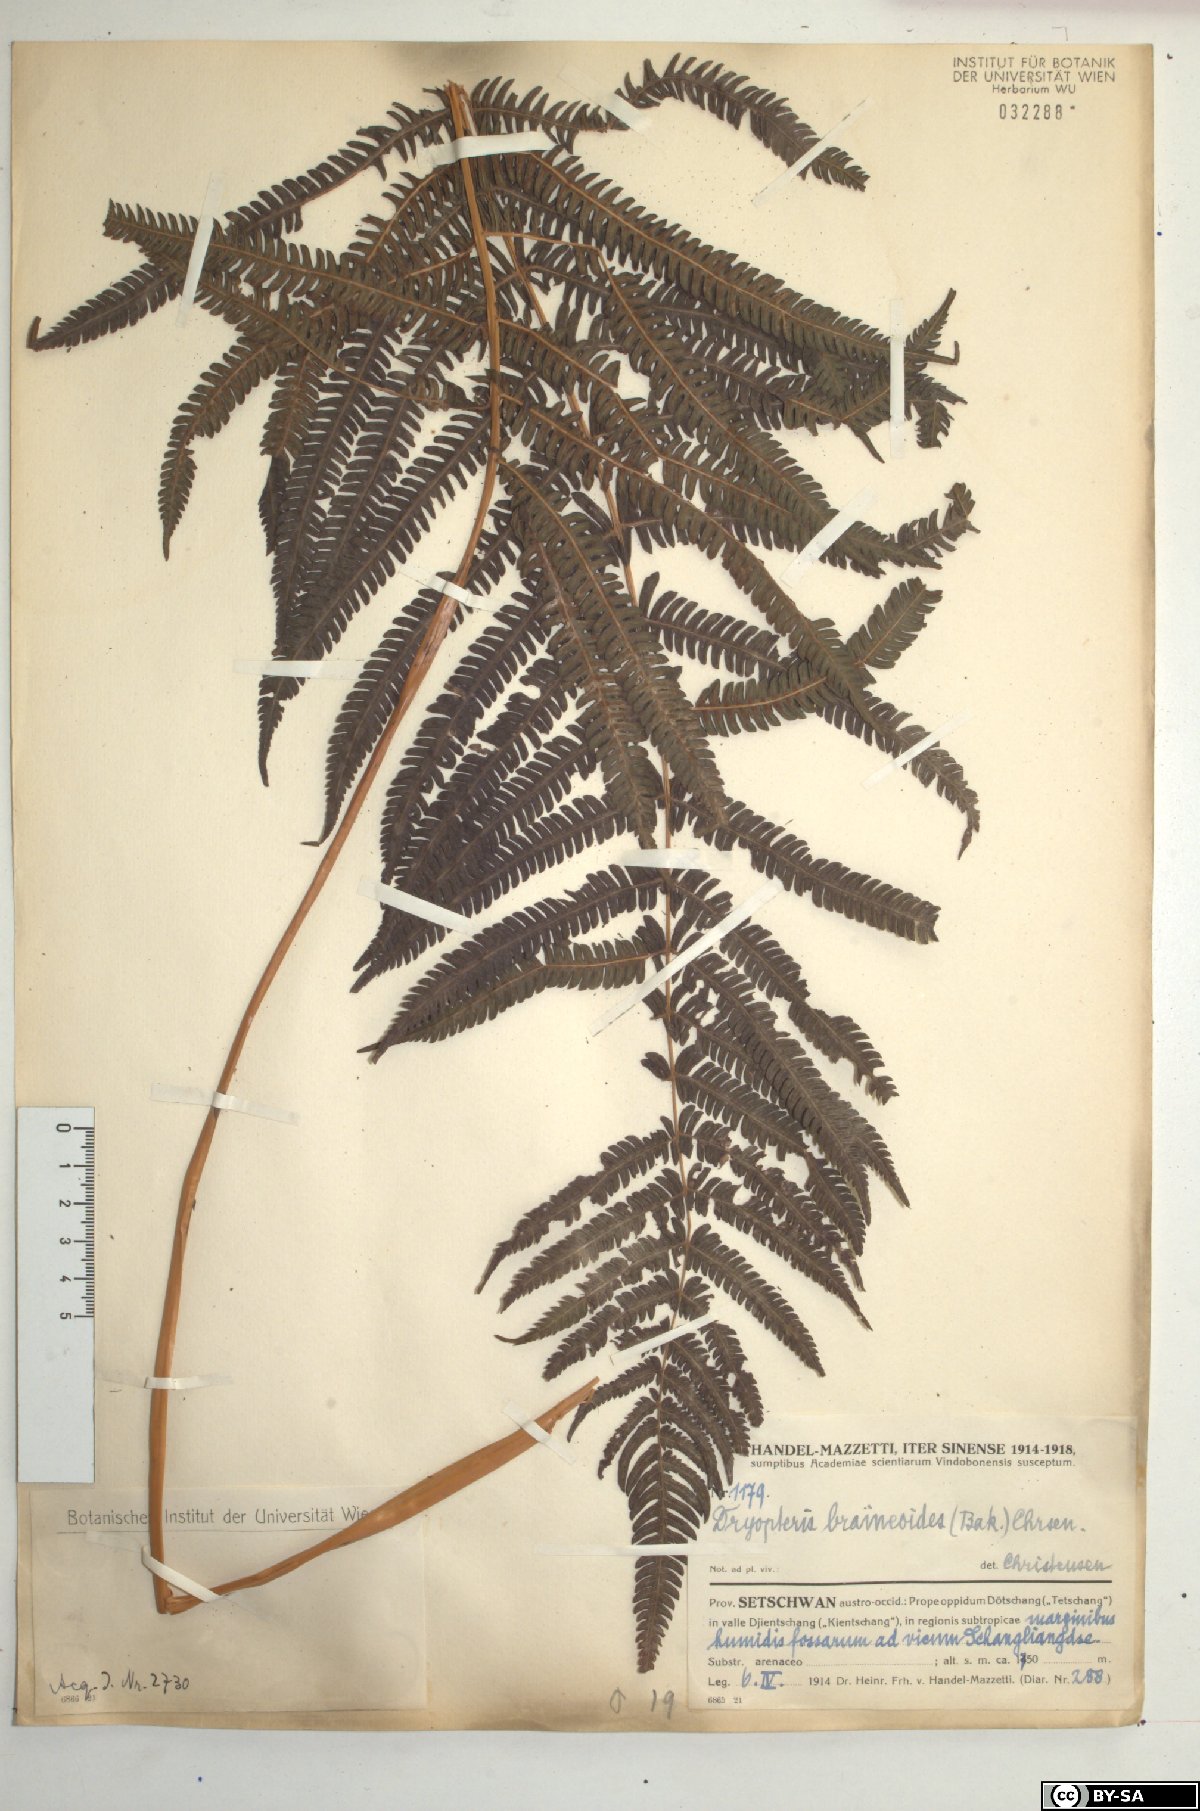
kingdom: Plantae
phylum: Tracheophyta
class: Polypodiopsida
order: Polypodiales
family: Thelypteridaceae
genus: Glaphyropteridopsis
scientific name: Glaphyropteridopsis erubescens
